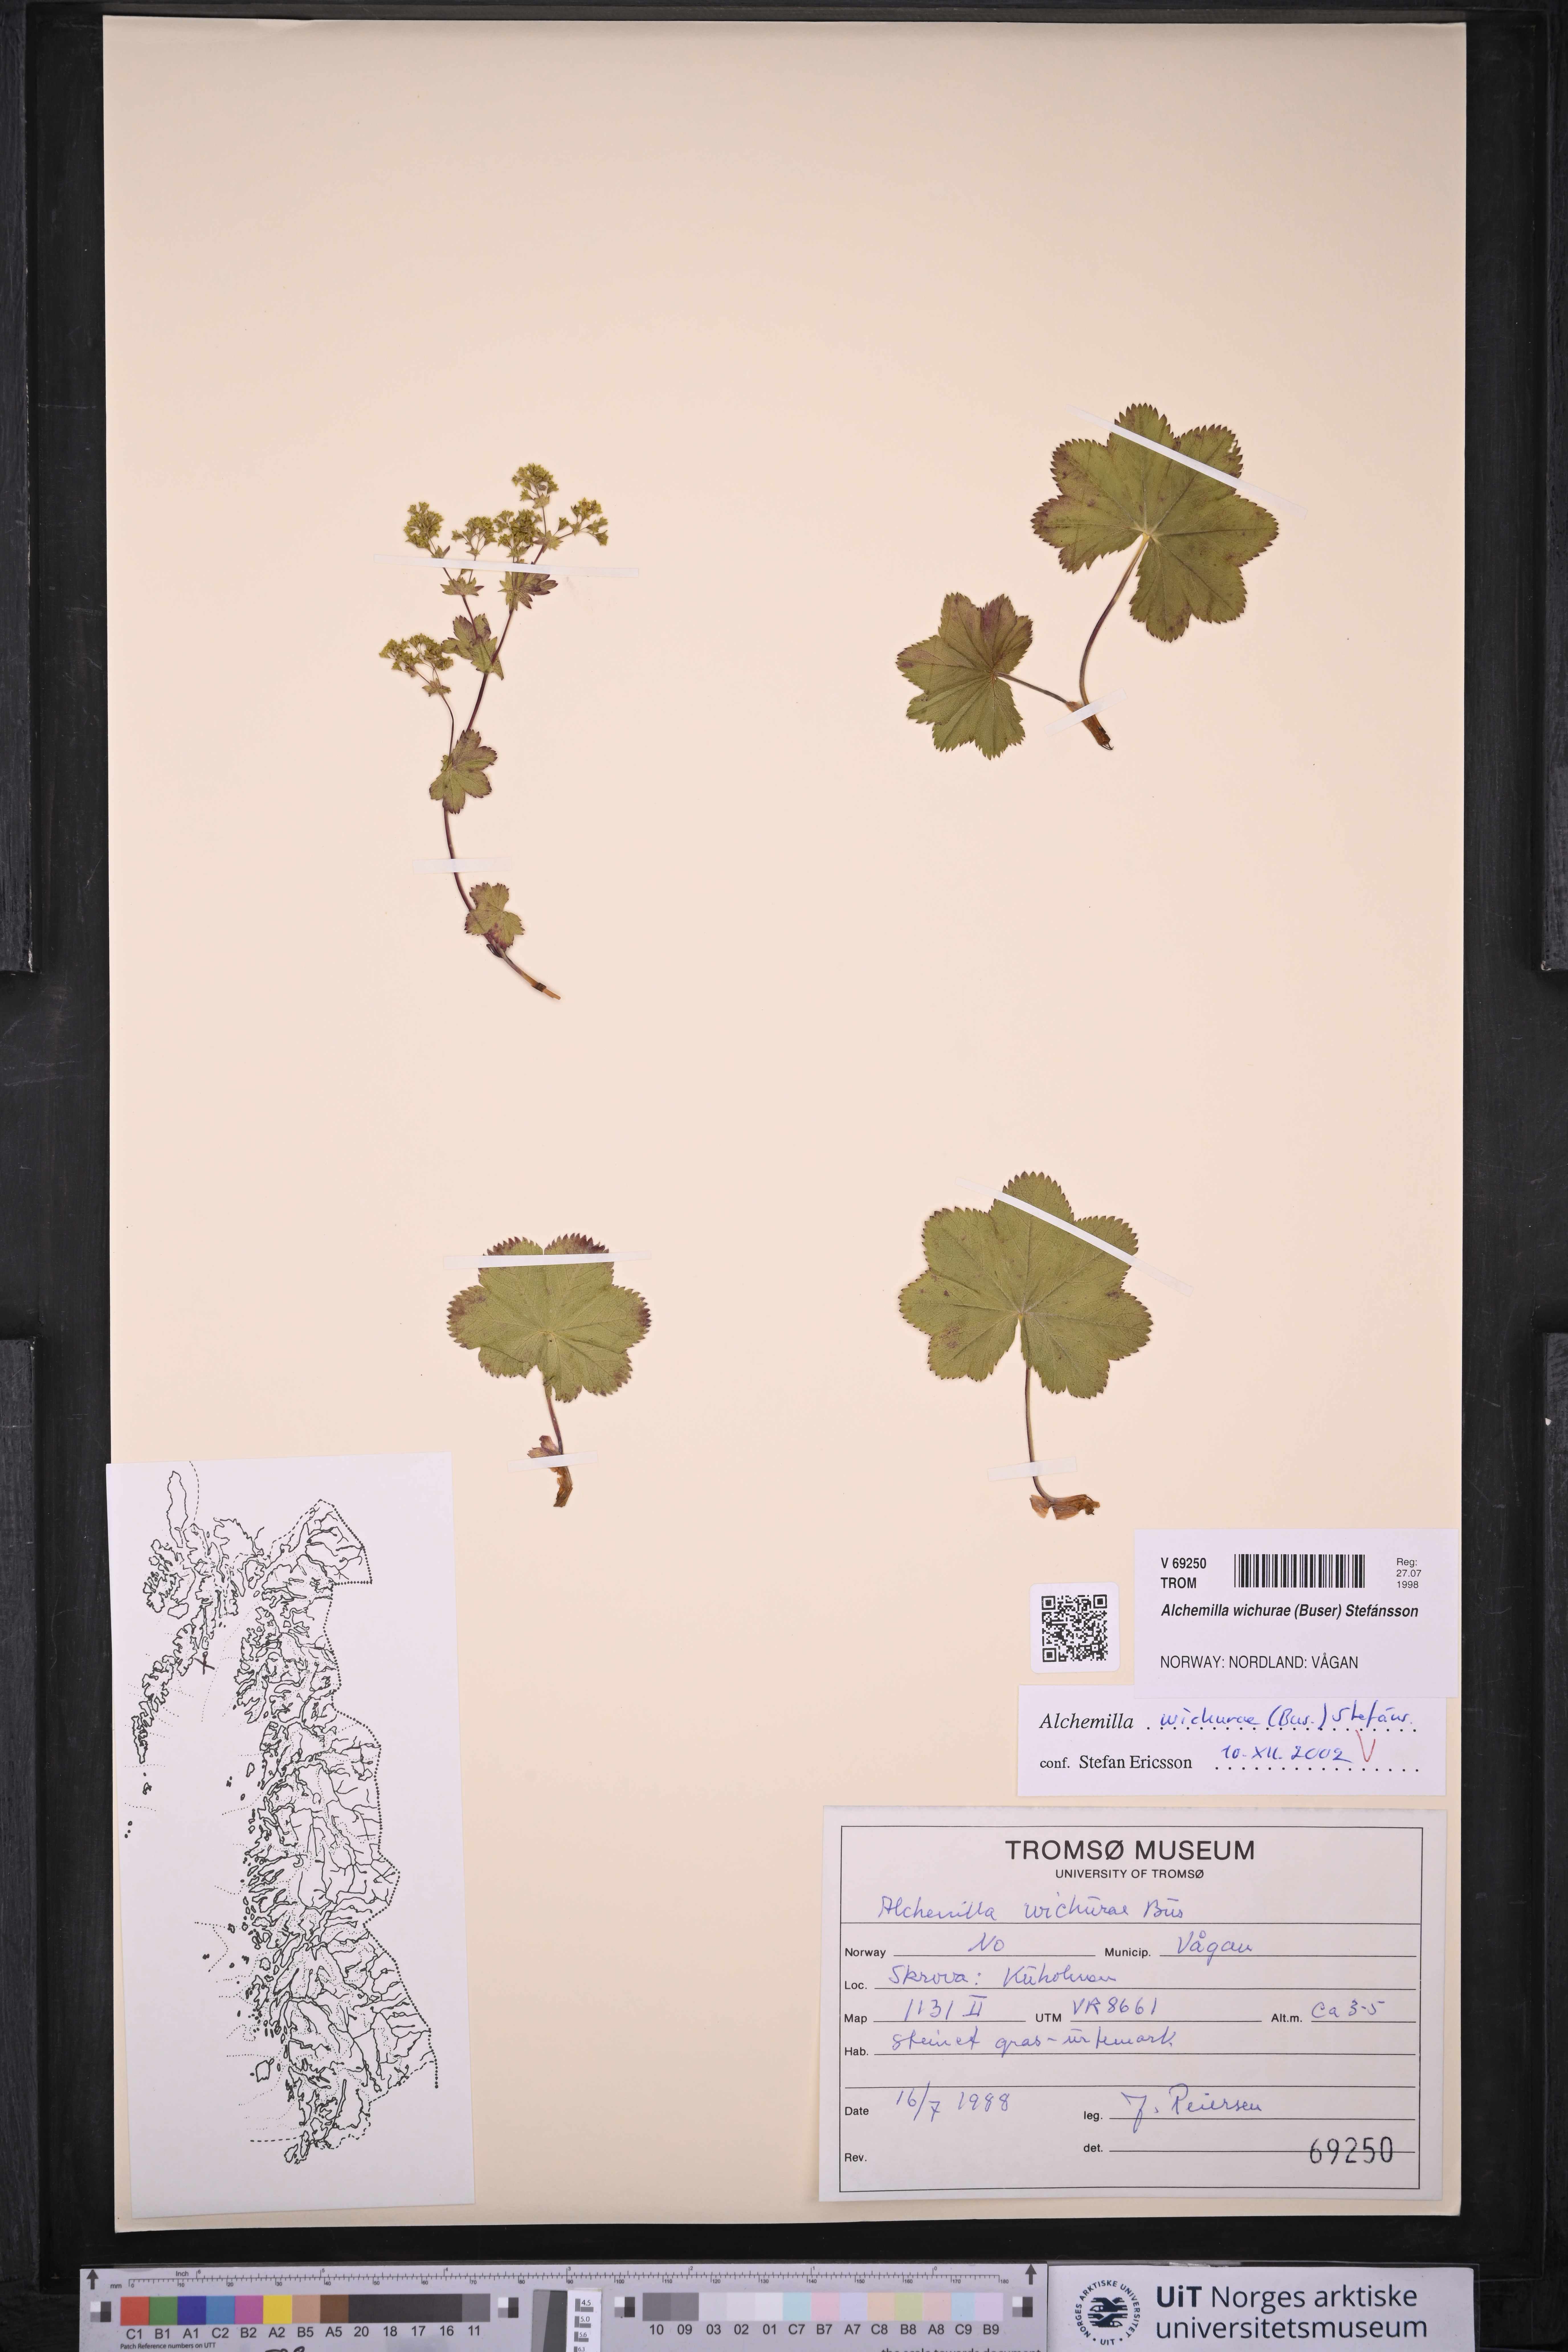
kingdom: Plantae
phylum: Tracheophyta
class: Magnoliopsida
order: Rosales
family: Rosaceae
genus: Alchemilla
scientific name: Alchemilla wichurae
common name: Rock lady's mantle
